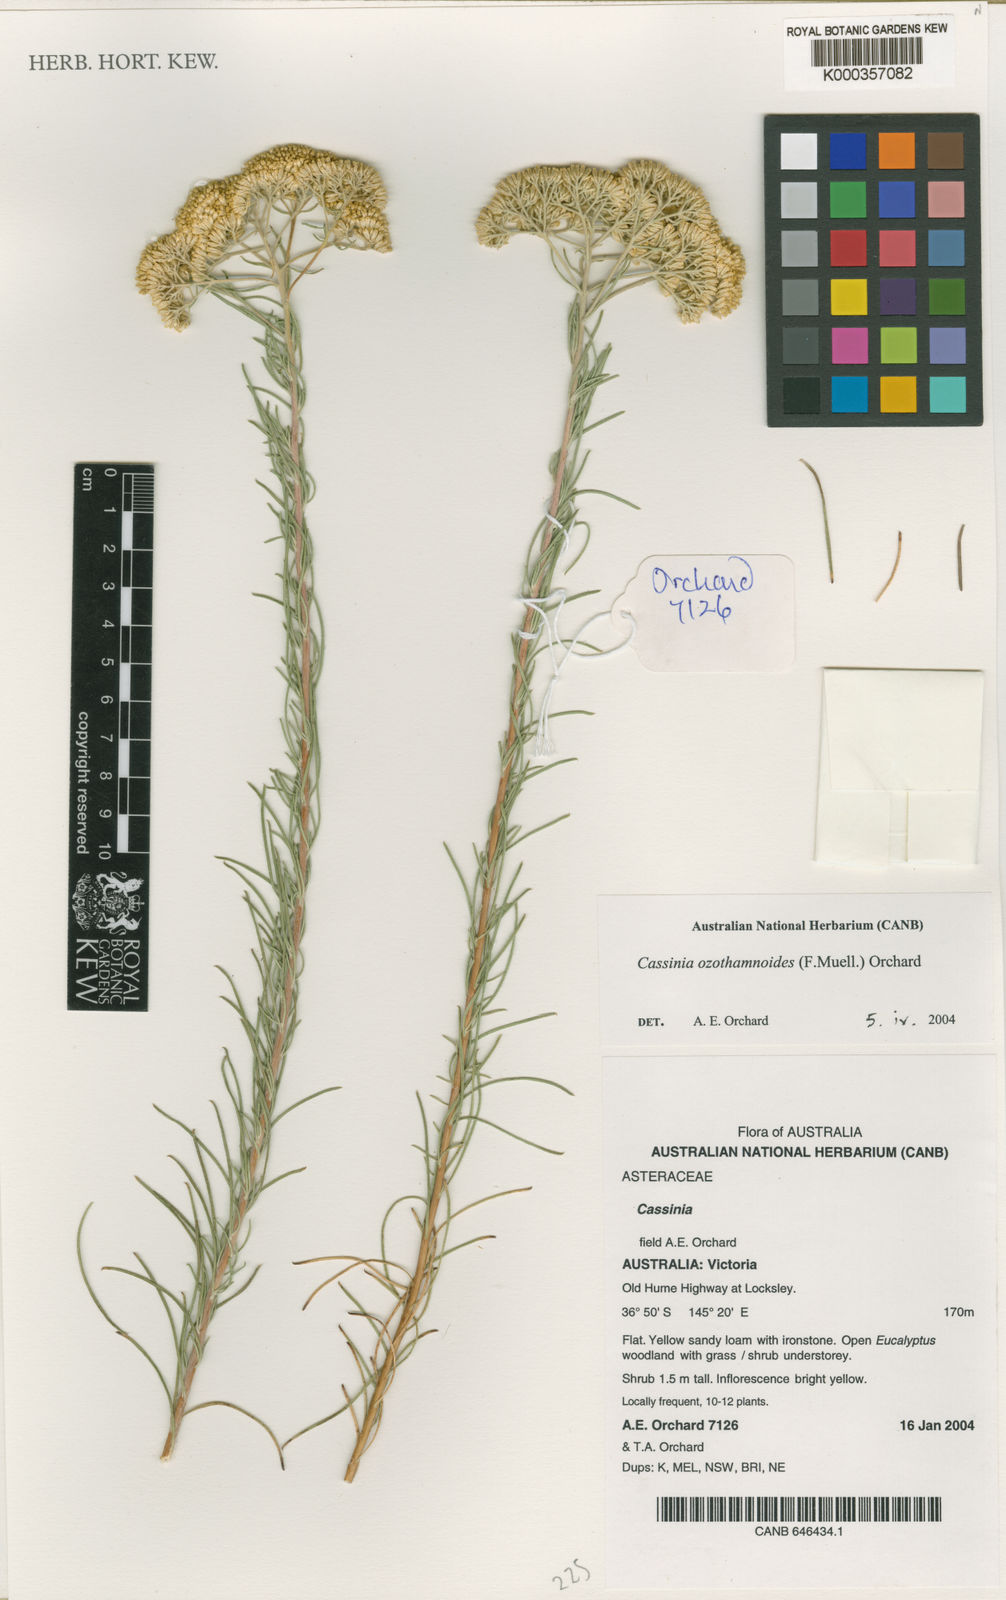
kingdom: Plantae
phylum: Tracheophyta
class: Magnoliopsida
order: Asterales
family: Asteraceae
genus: Cassinia
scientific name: Cassinia ozothamnoides
